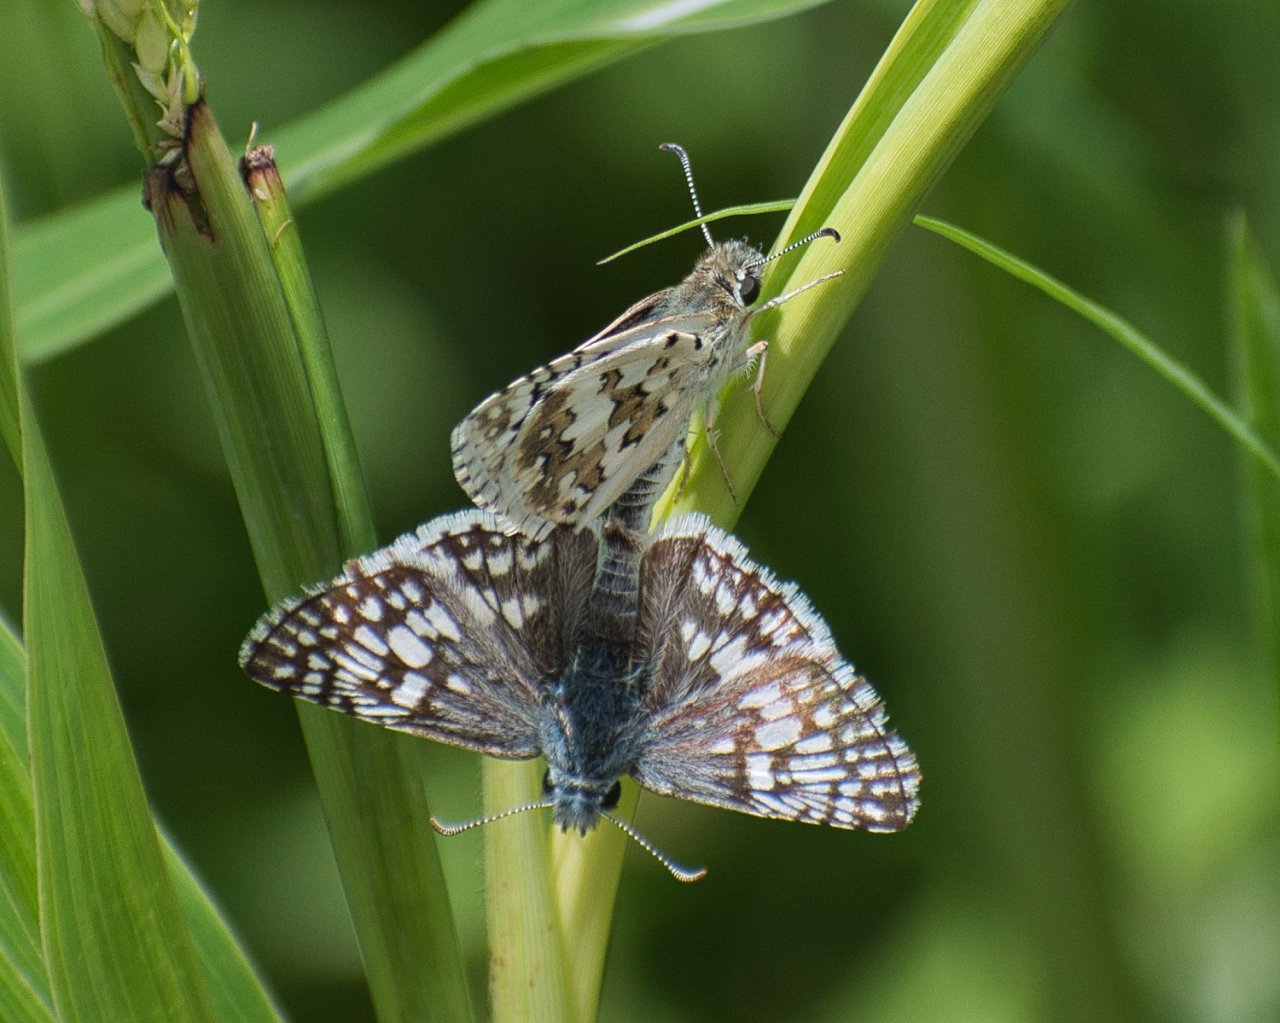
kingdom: Animalia
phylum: Arthropoda
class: Insecta
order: Lepidoptera
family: Hesperiidae
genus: Pyrgus
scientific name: Pyrgus communis
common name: White Checkered-Skipper
